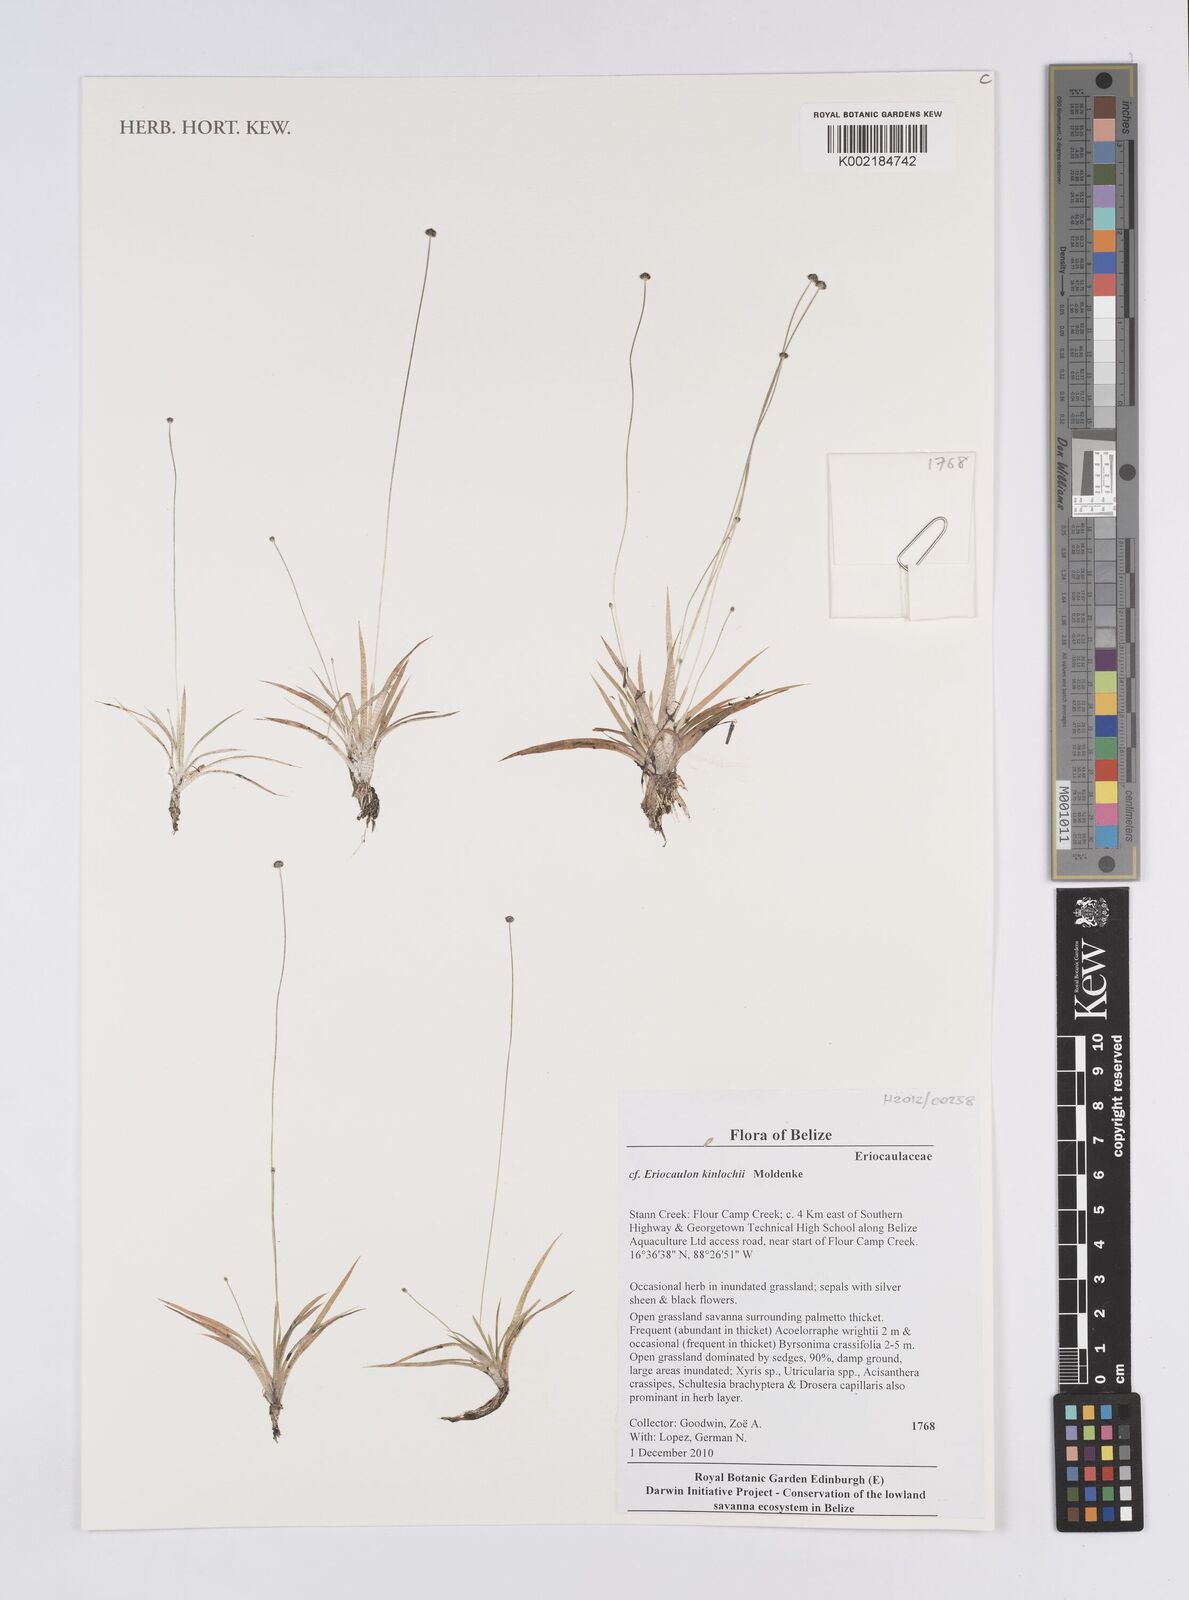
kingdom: Plantae
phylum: Tracheophyta
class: Liliopsida
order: Poales
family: Eriocaulaceae
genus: Eriocaulon
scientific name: Eriocaulon kinlochii
